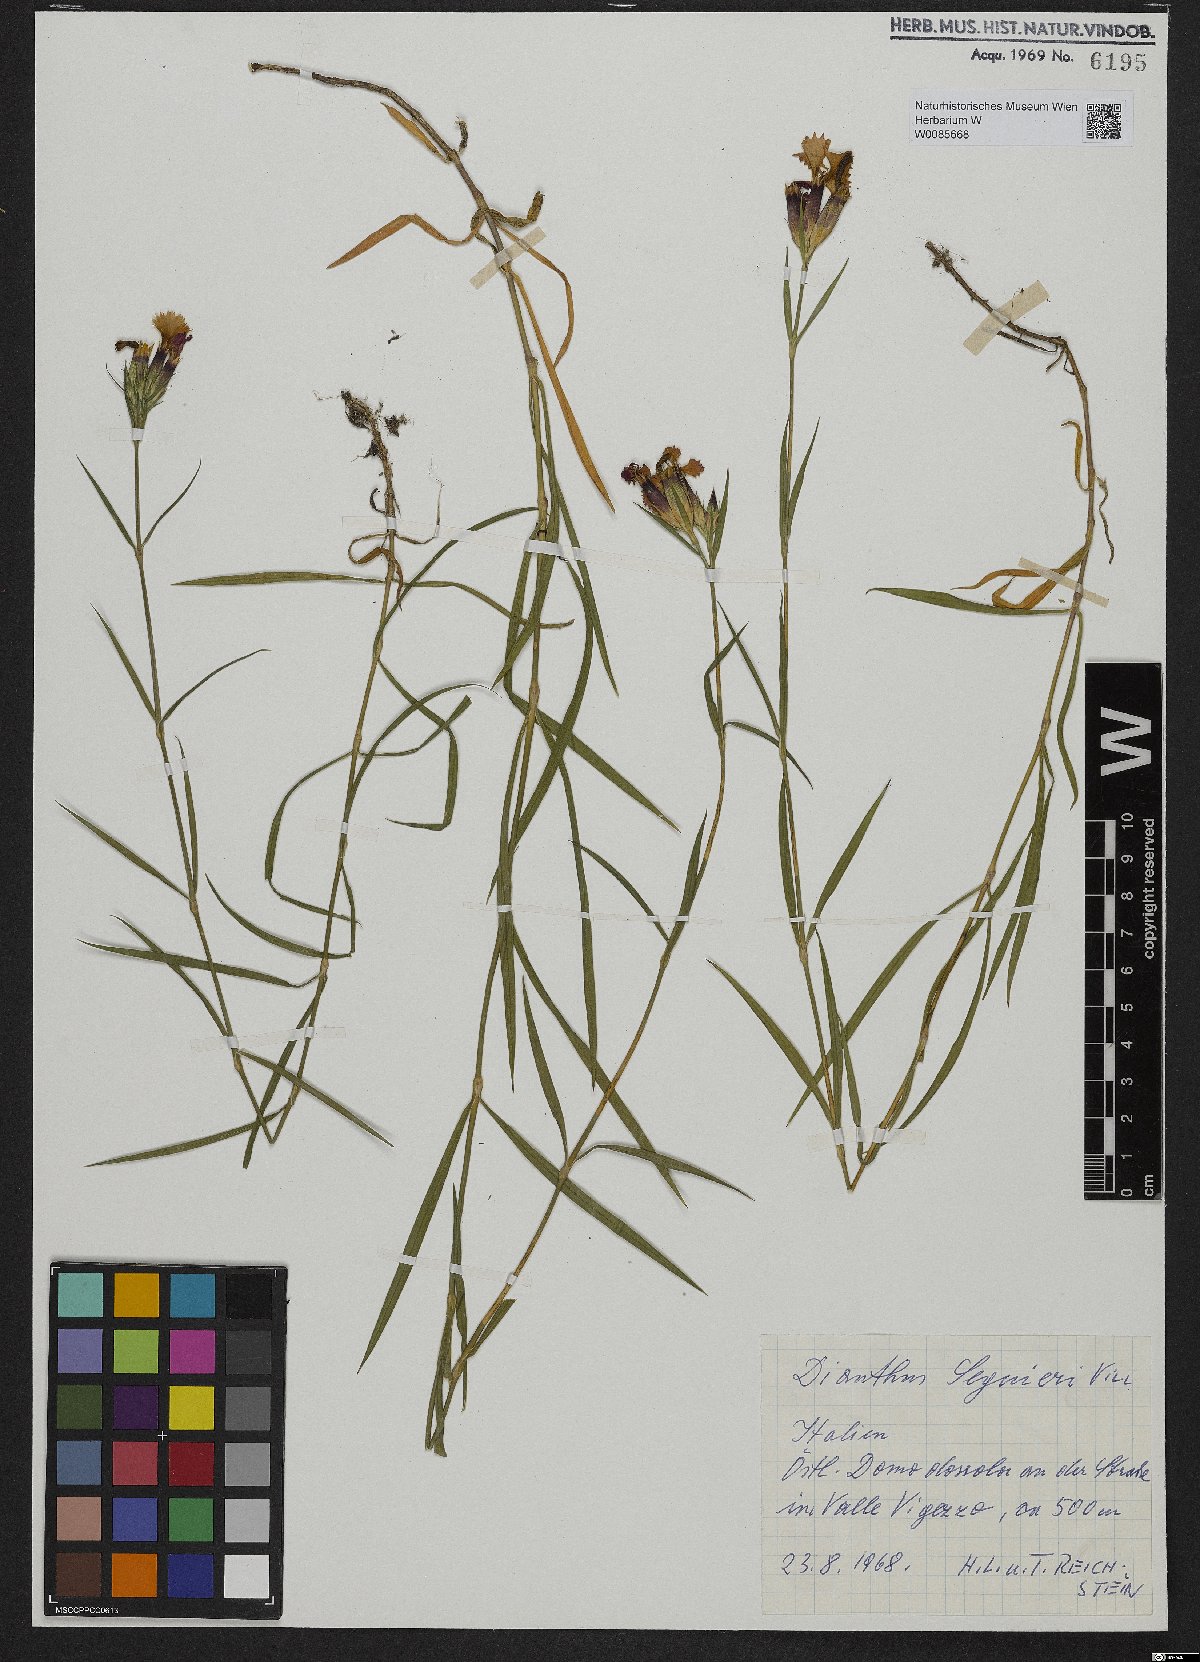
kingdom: Plantae
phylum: Tracheophyta
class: Magnoliopsida
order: Caryophyllales
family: Caryophyllaceae
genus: Dianthus
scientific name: Dianthus seguieri
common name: Ragged pink
